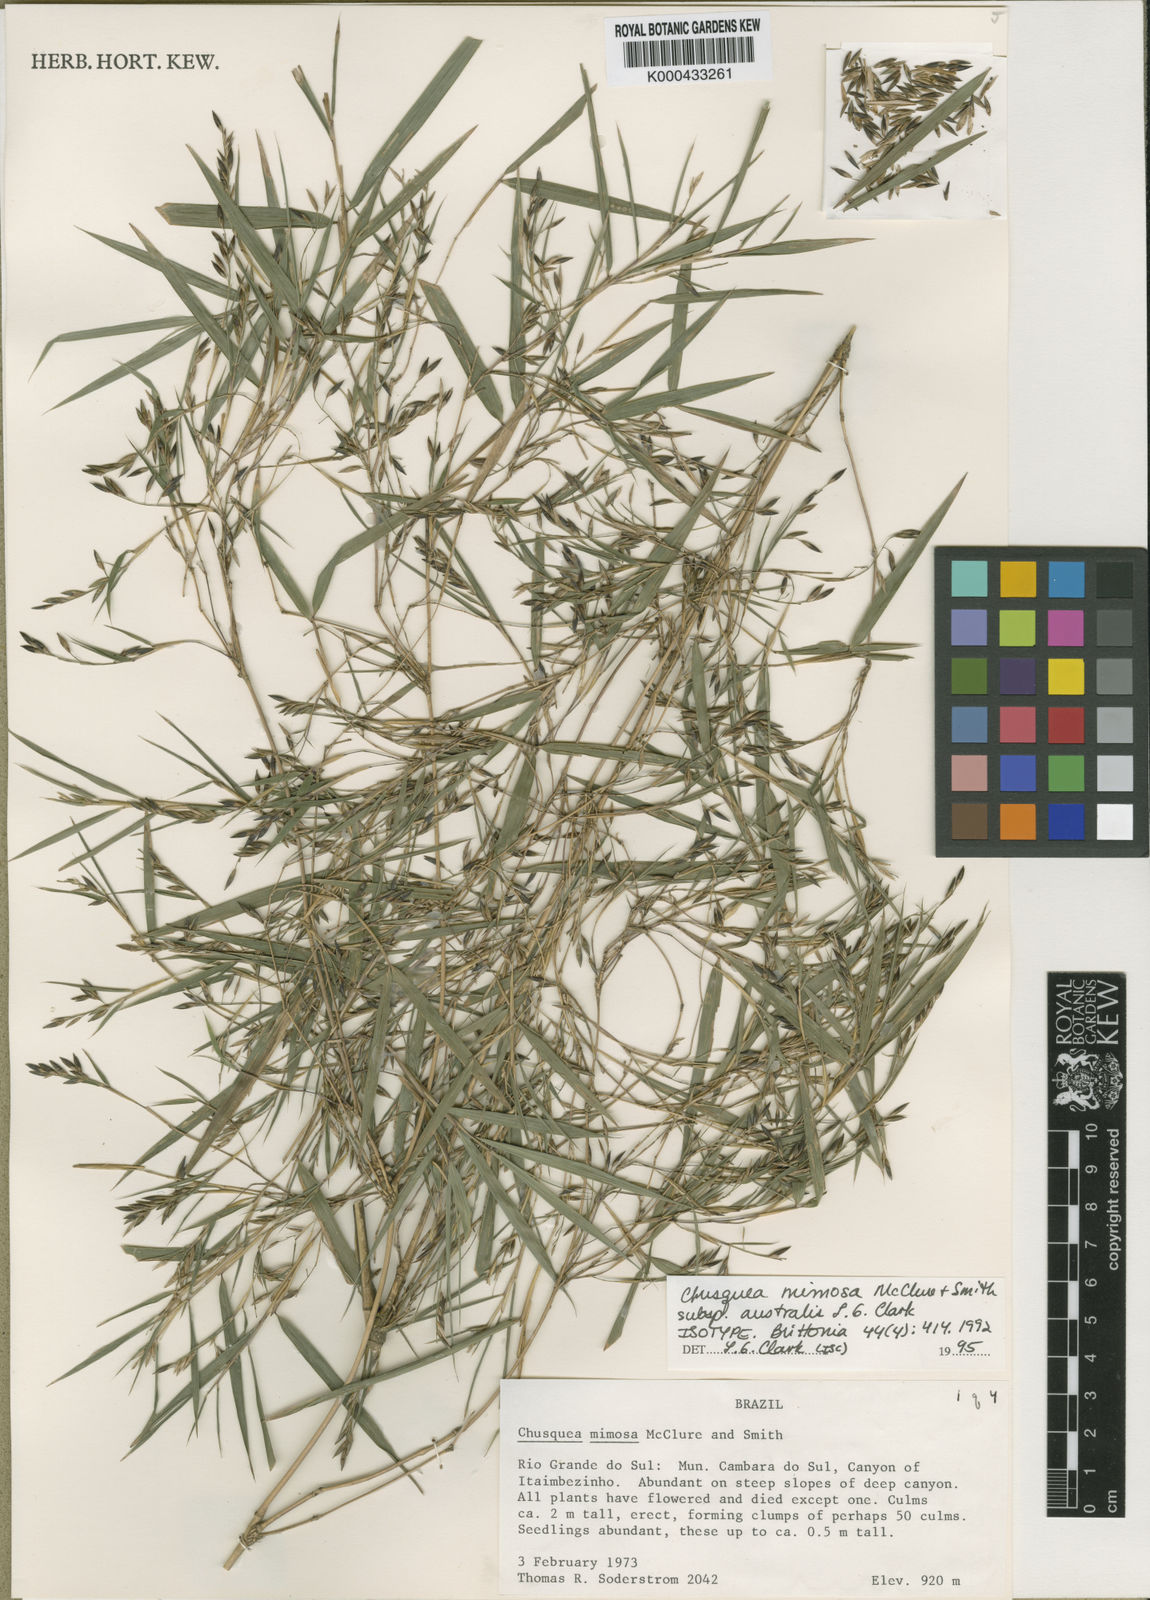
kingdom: Plantae
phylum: Tracheophyta
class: Liliopsida
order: Poales
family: Poaceae
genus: Chusquea
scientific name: Chusquea mimosa
